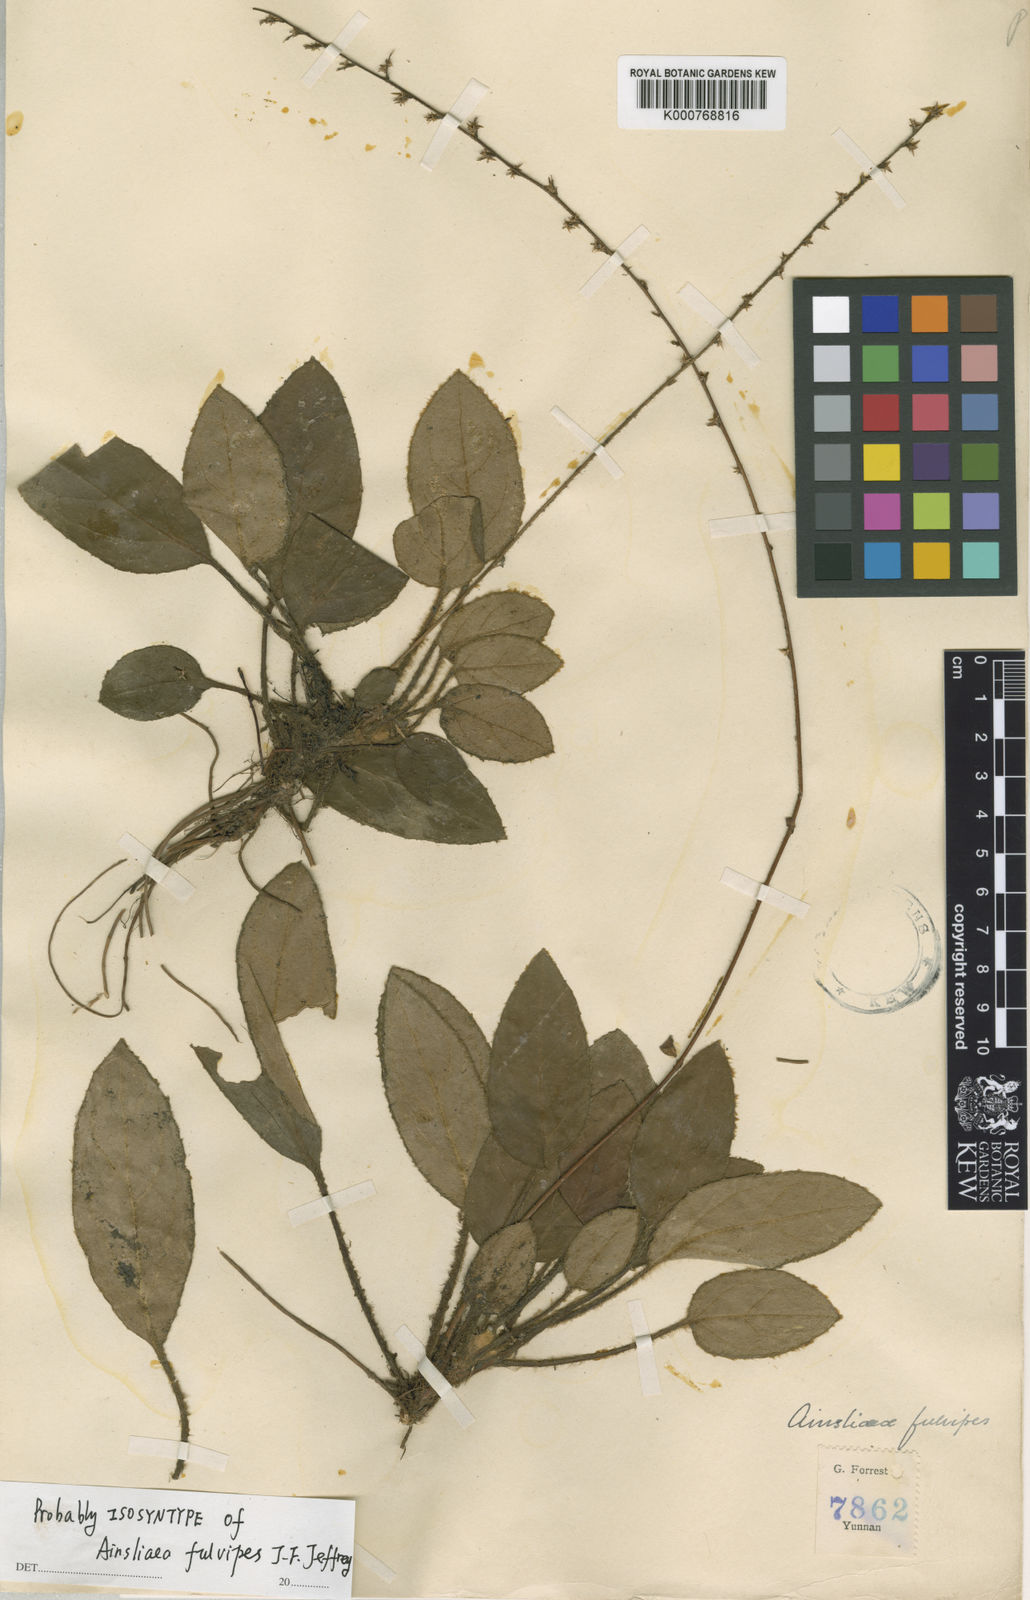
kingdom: Plantae
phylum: Tracheophyta
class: Magnoliopsida
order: Asterales
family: Asteraceae
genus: Ainsliaea
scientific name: Ainsliaea fulvipes
